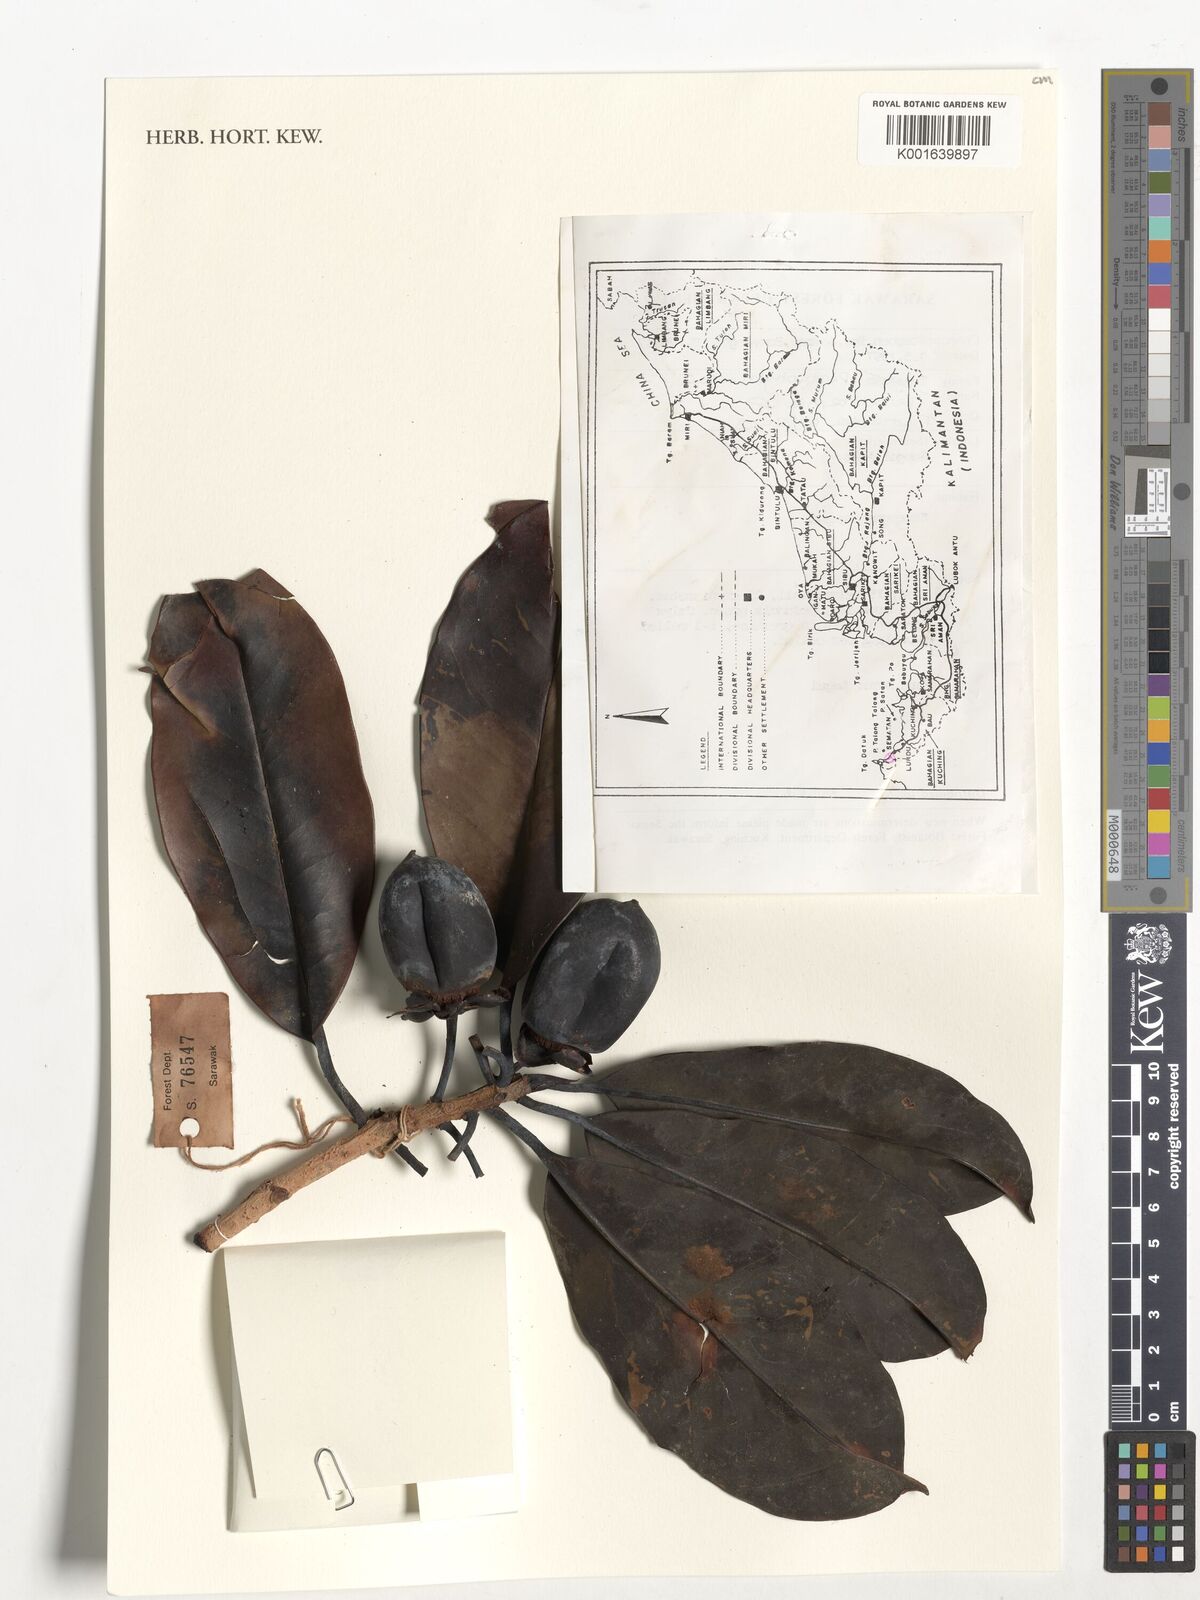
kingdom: Plantae
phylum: Tracheophyta
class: Magnoliopsida
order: Ericales
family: Pentaphylacaceae
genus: Ternstroemia
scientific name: Ternstroemia
